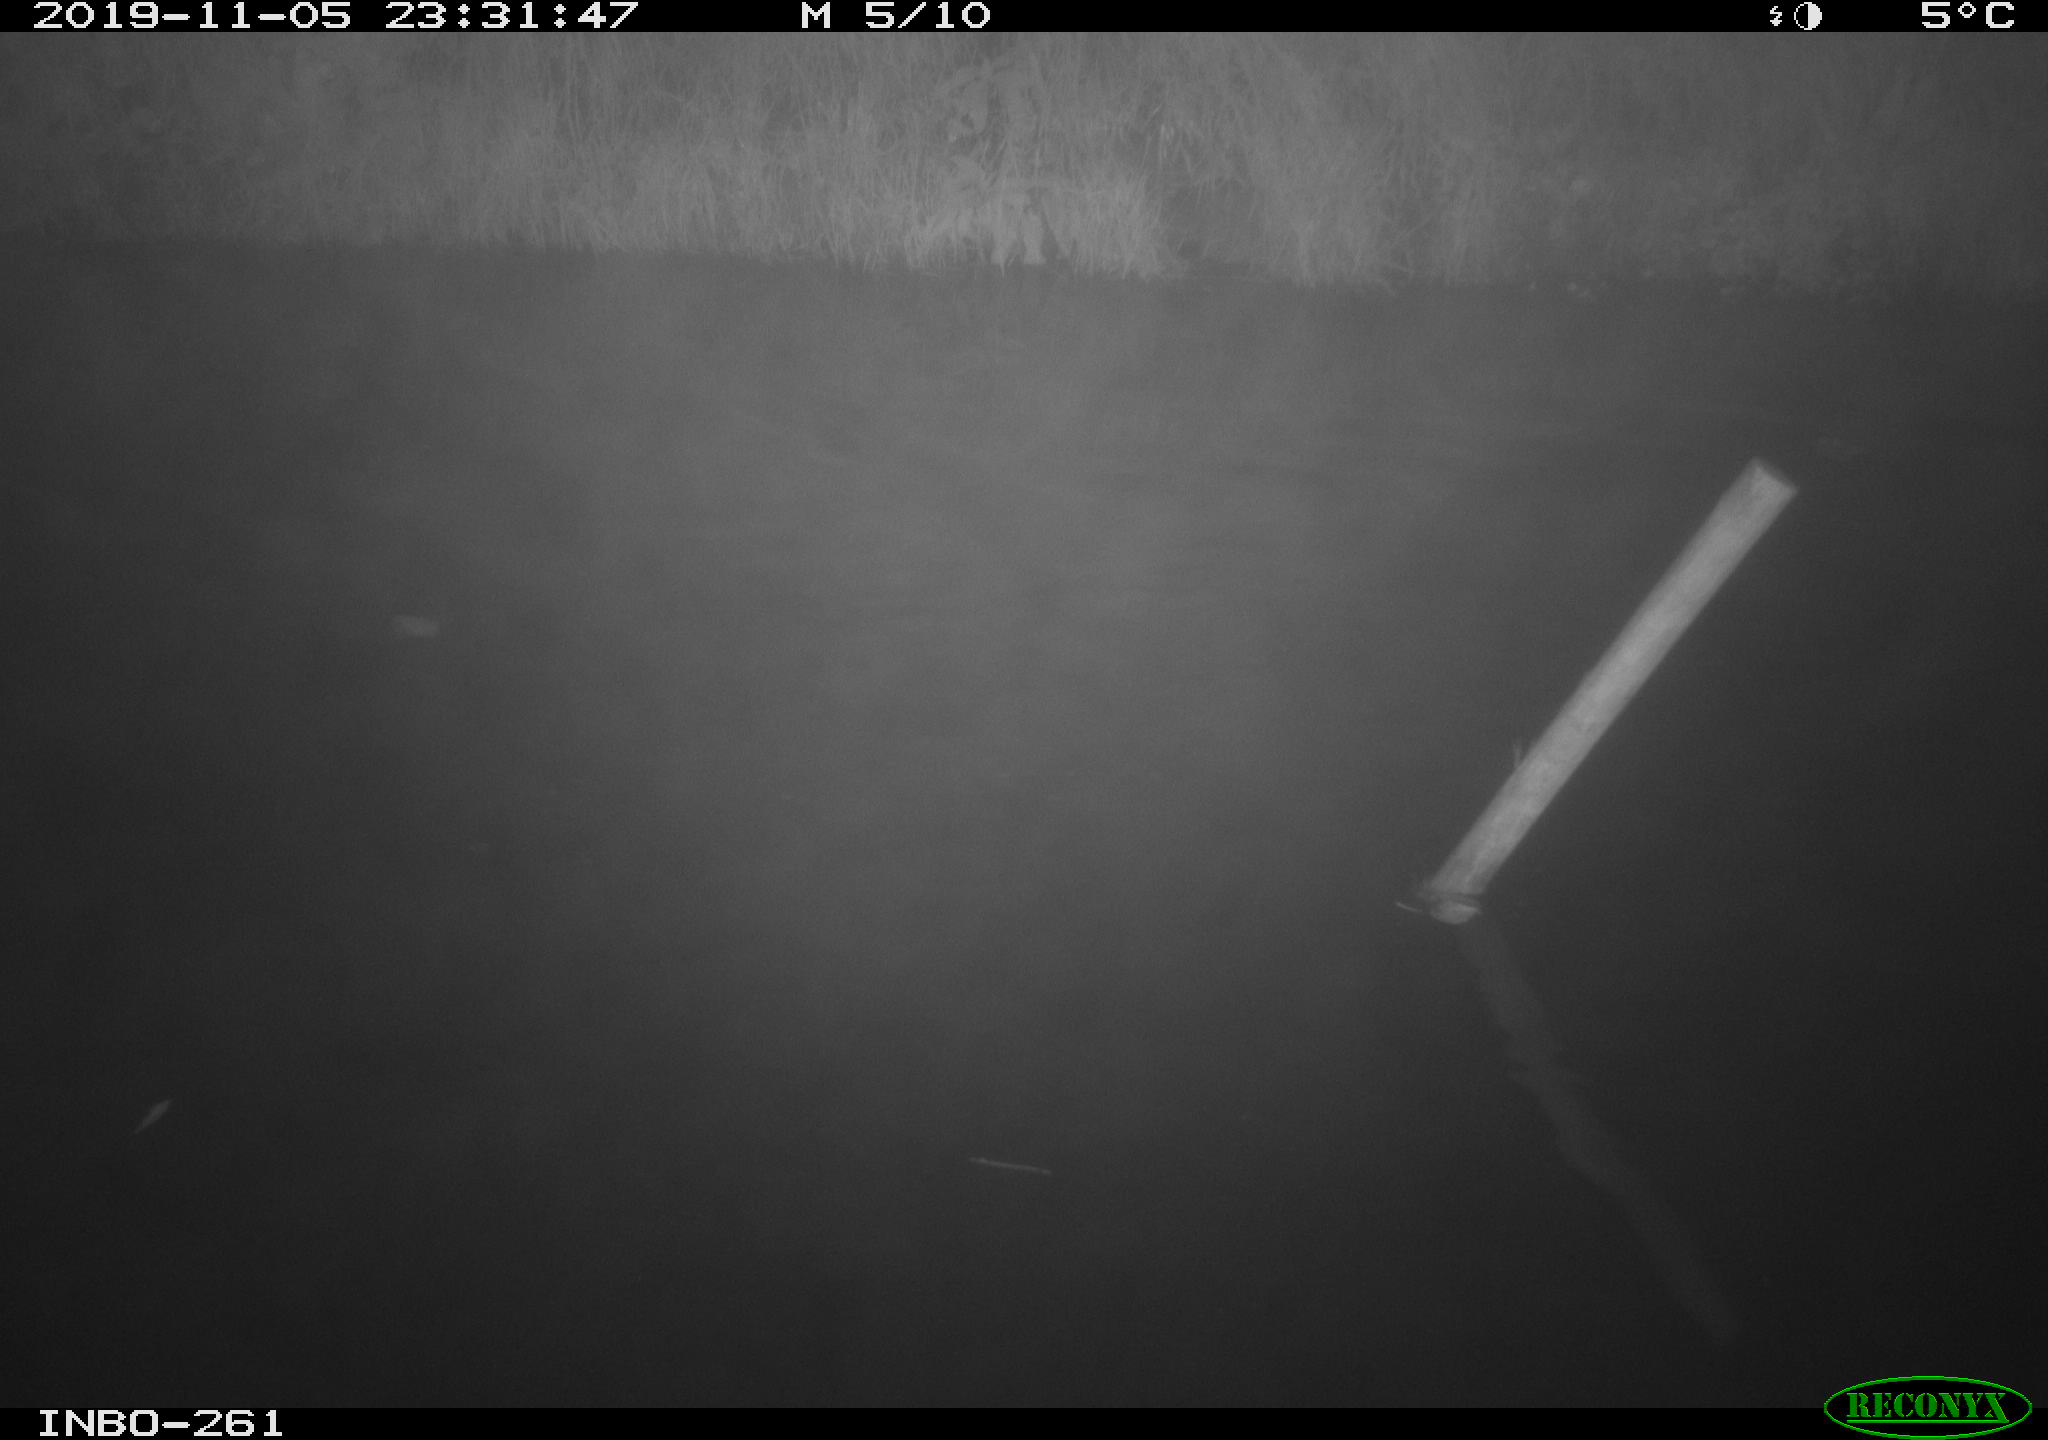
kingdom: Animalia
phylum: Chordata
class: Aves
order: Anseriformes
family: Anatidae
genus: Anas
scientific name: Anas platyrhynchos
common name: Mallard
